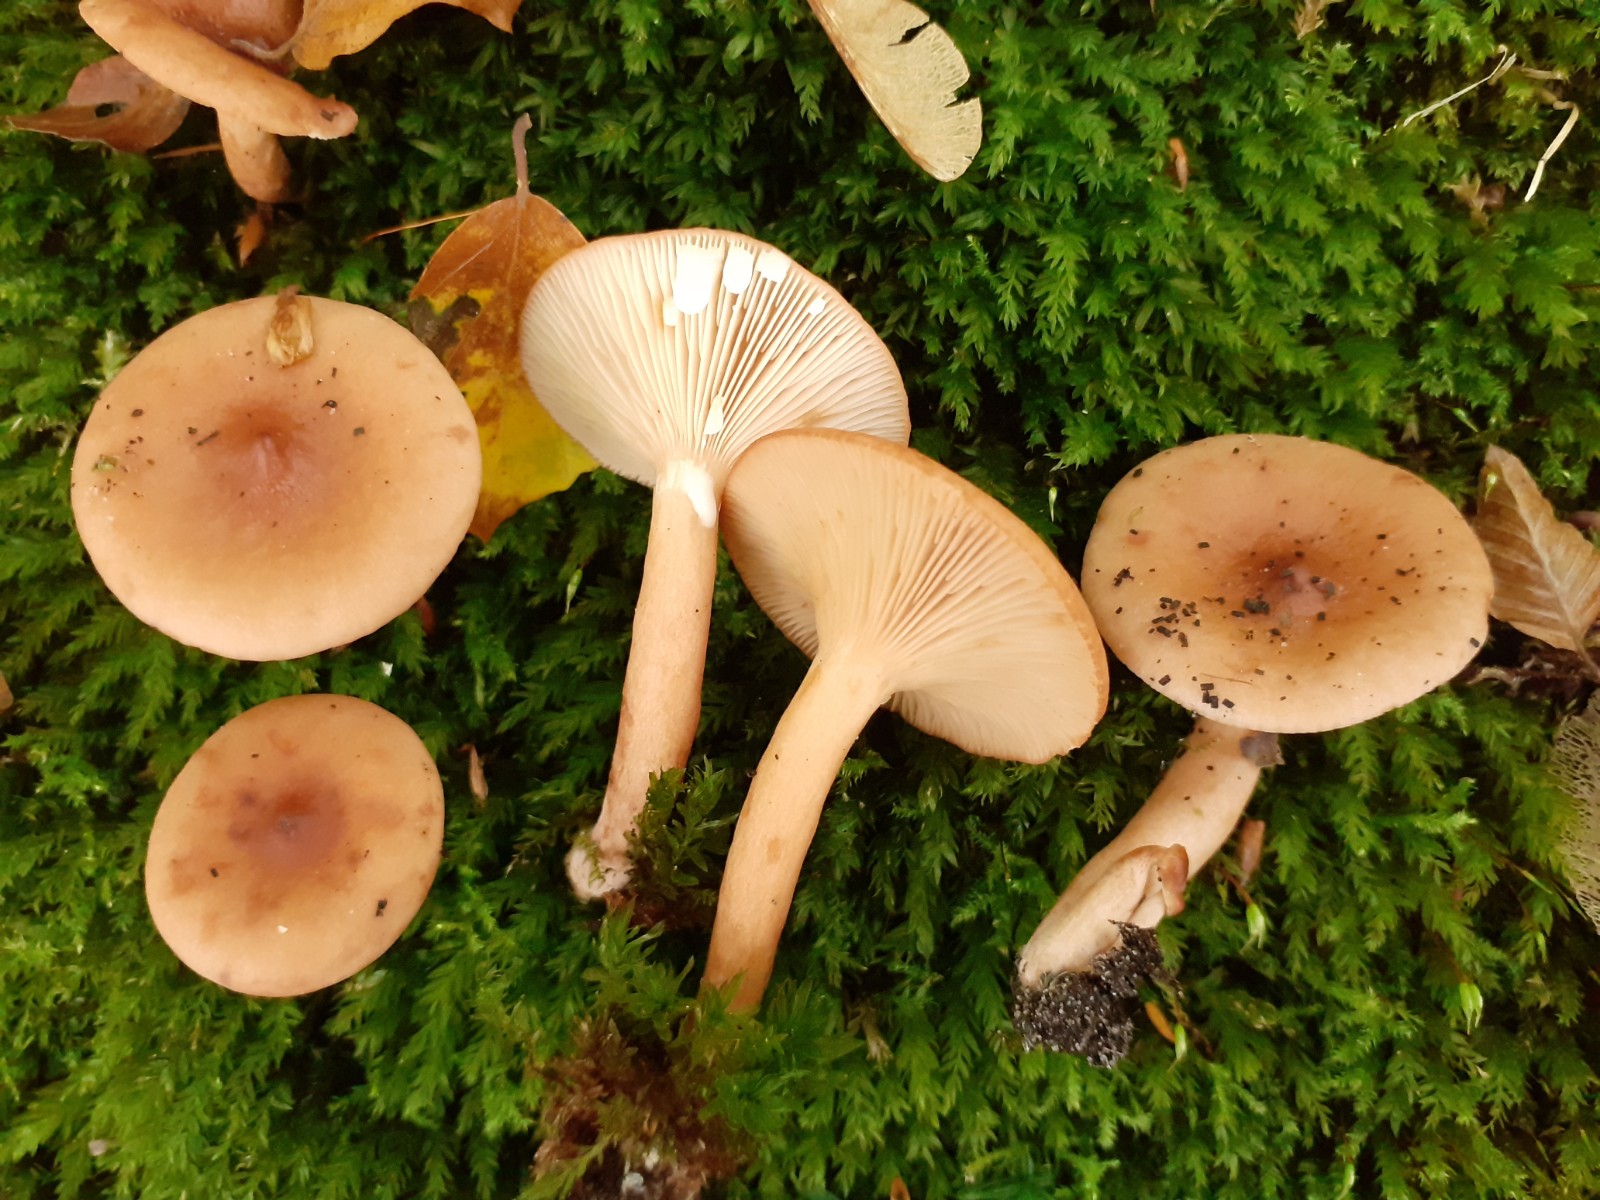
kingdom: Fungi
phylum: Basidiomycota
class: Agaricomycetes
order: Russulales
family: Russulaceae
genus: Lactarius
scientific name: Lactarius decipiens
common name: pelargonie-mælkehat
